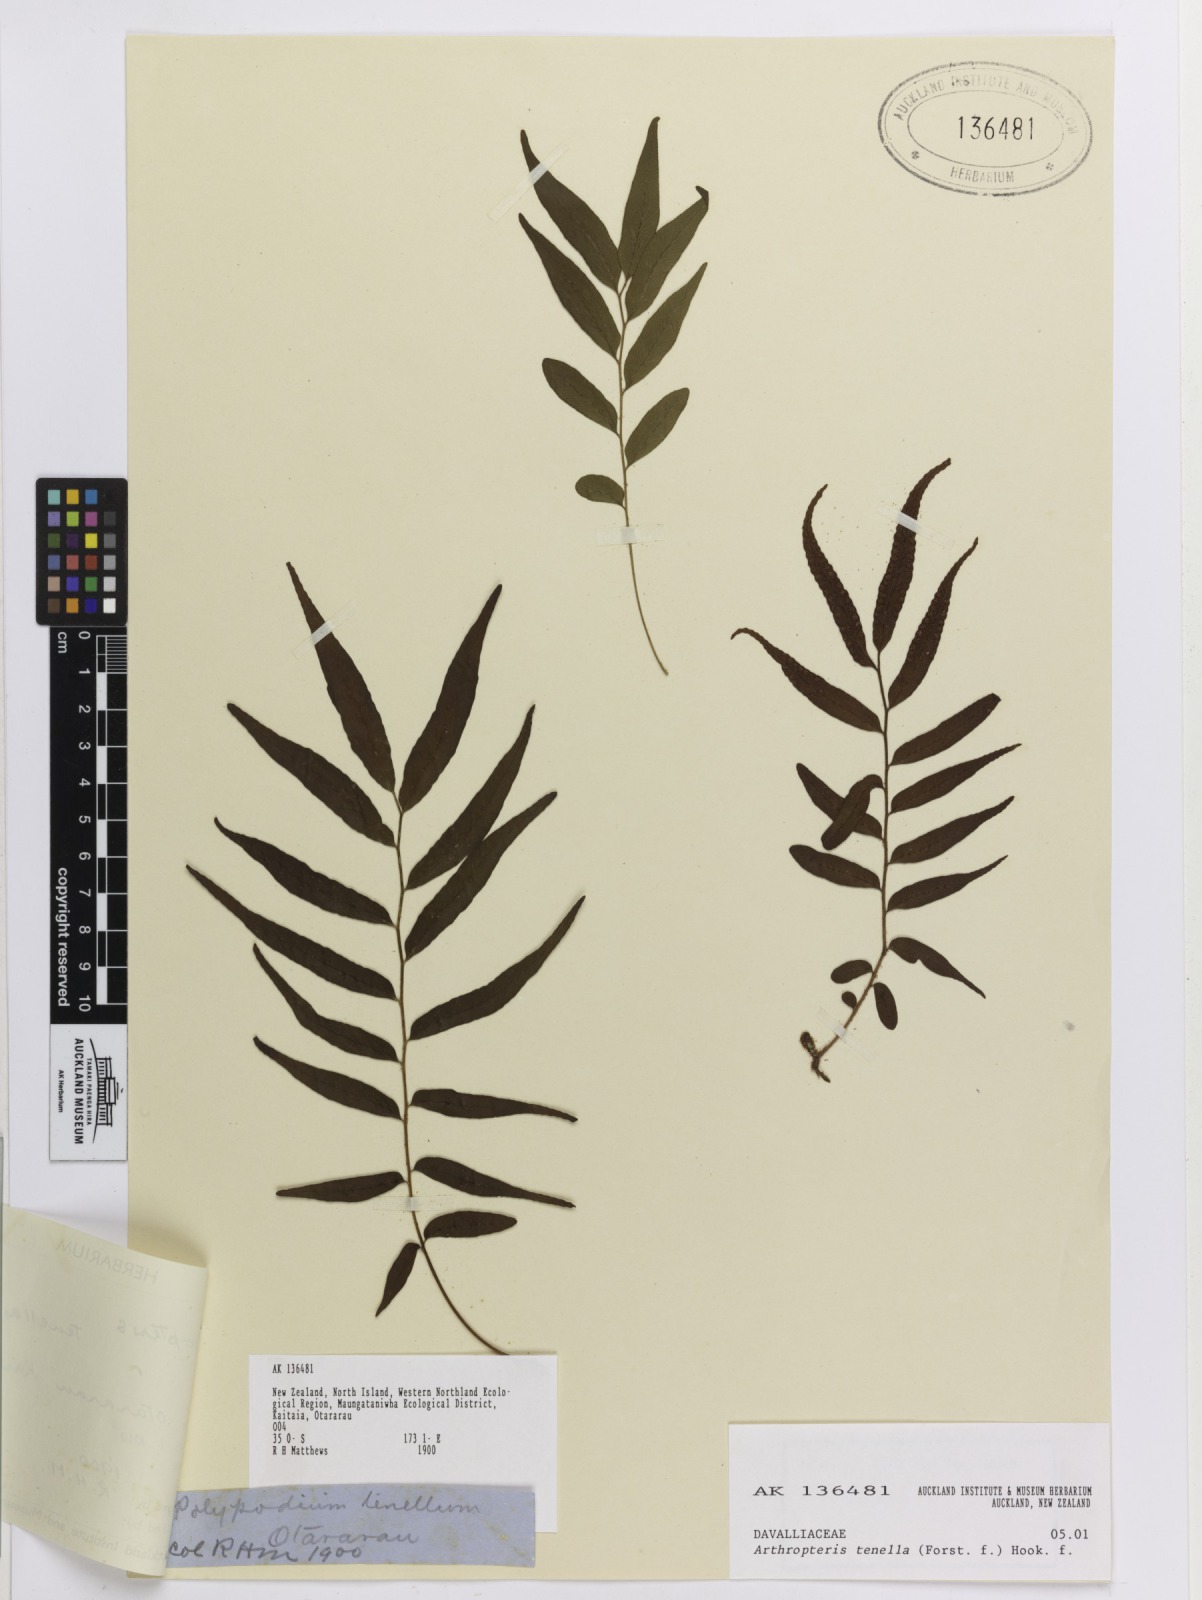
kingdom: Plantae
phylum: Tracheophyta
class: Polypodiopsida
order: Polypodiales
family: Tectariaceae
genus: Arthropteris
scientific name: Arthropteris tenella
